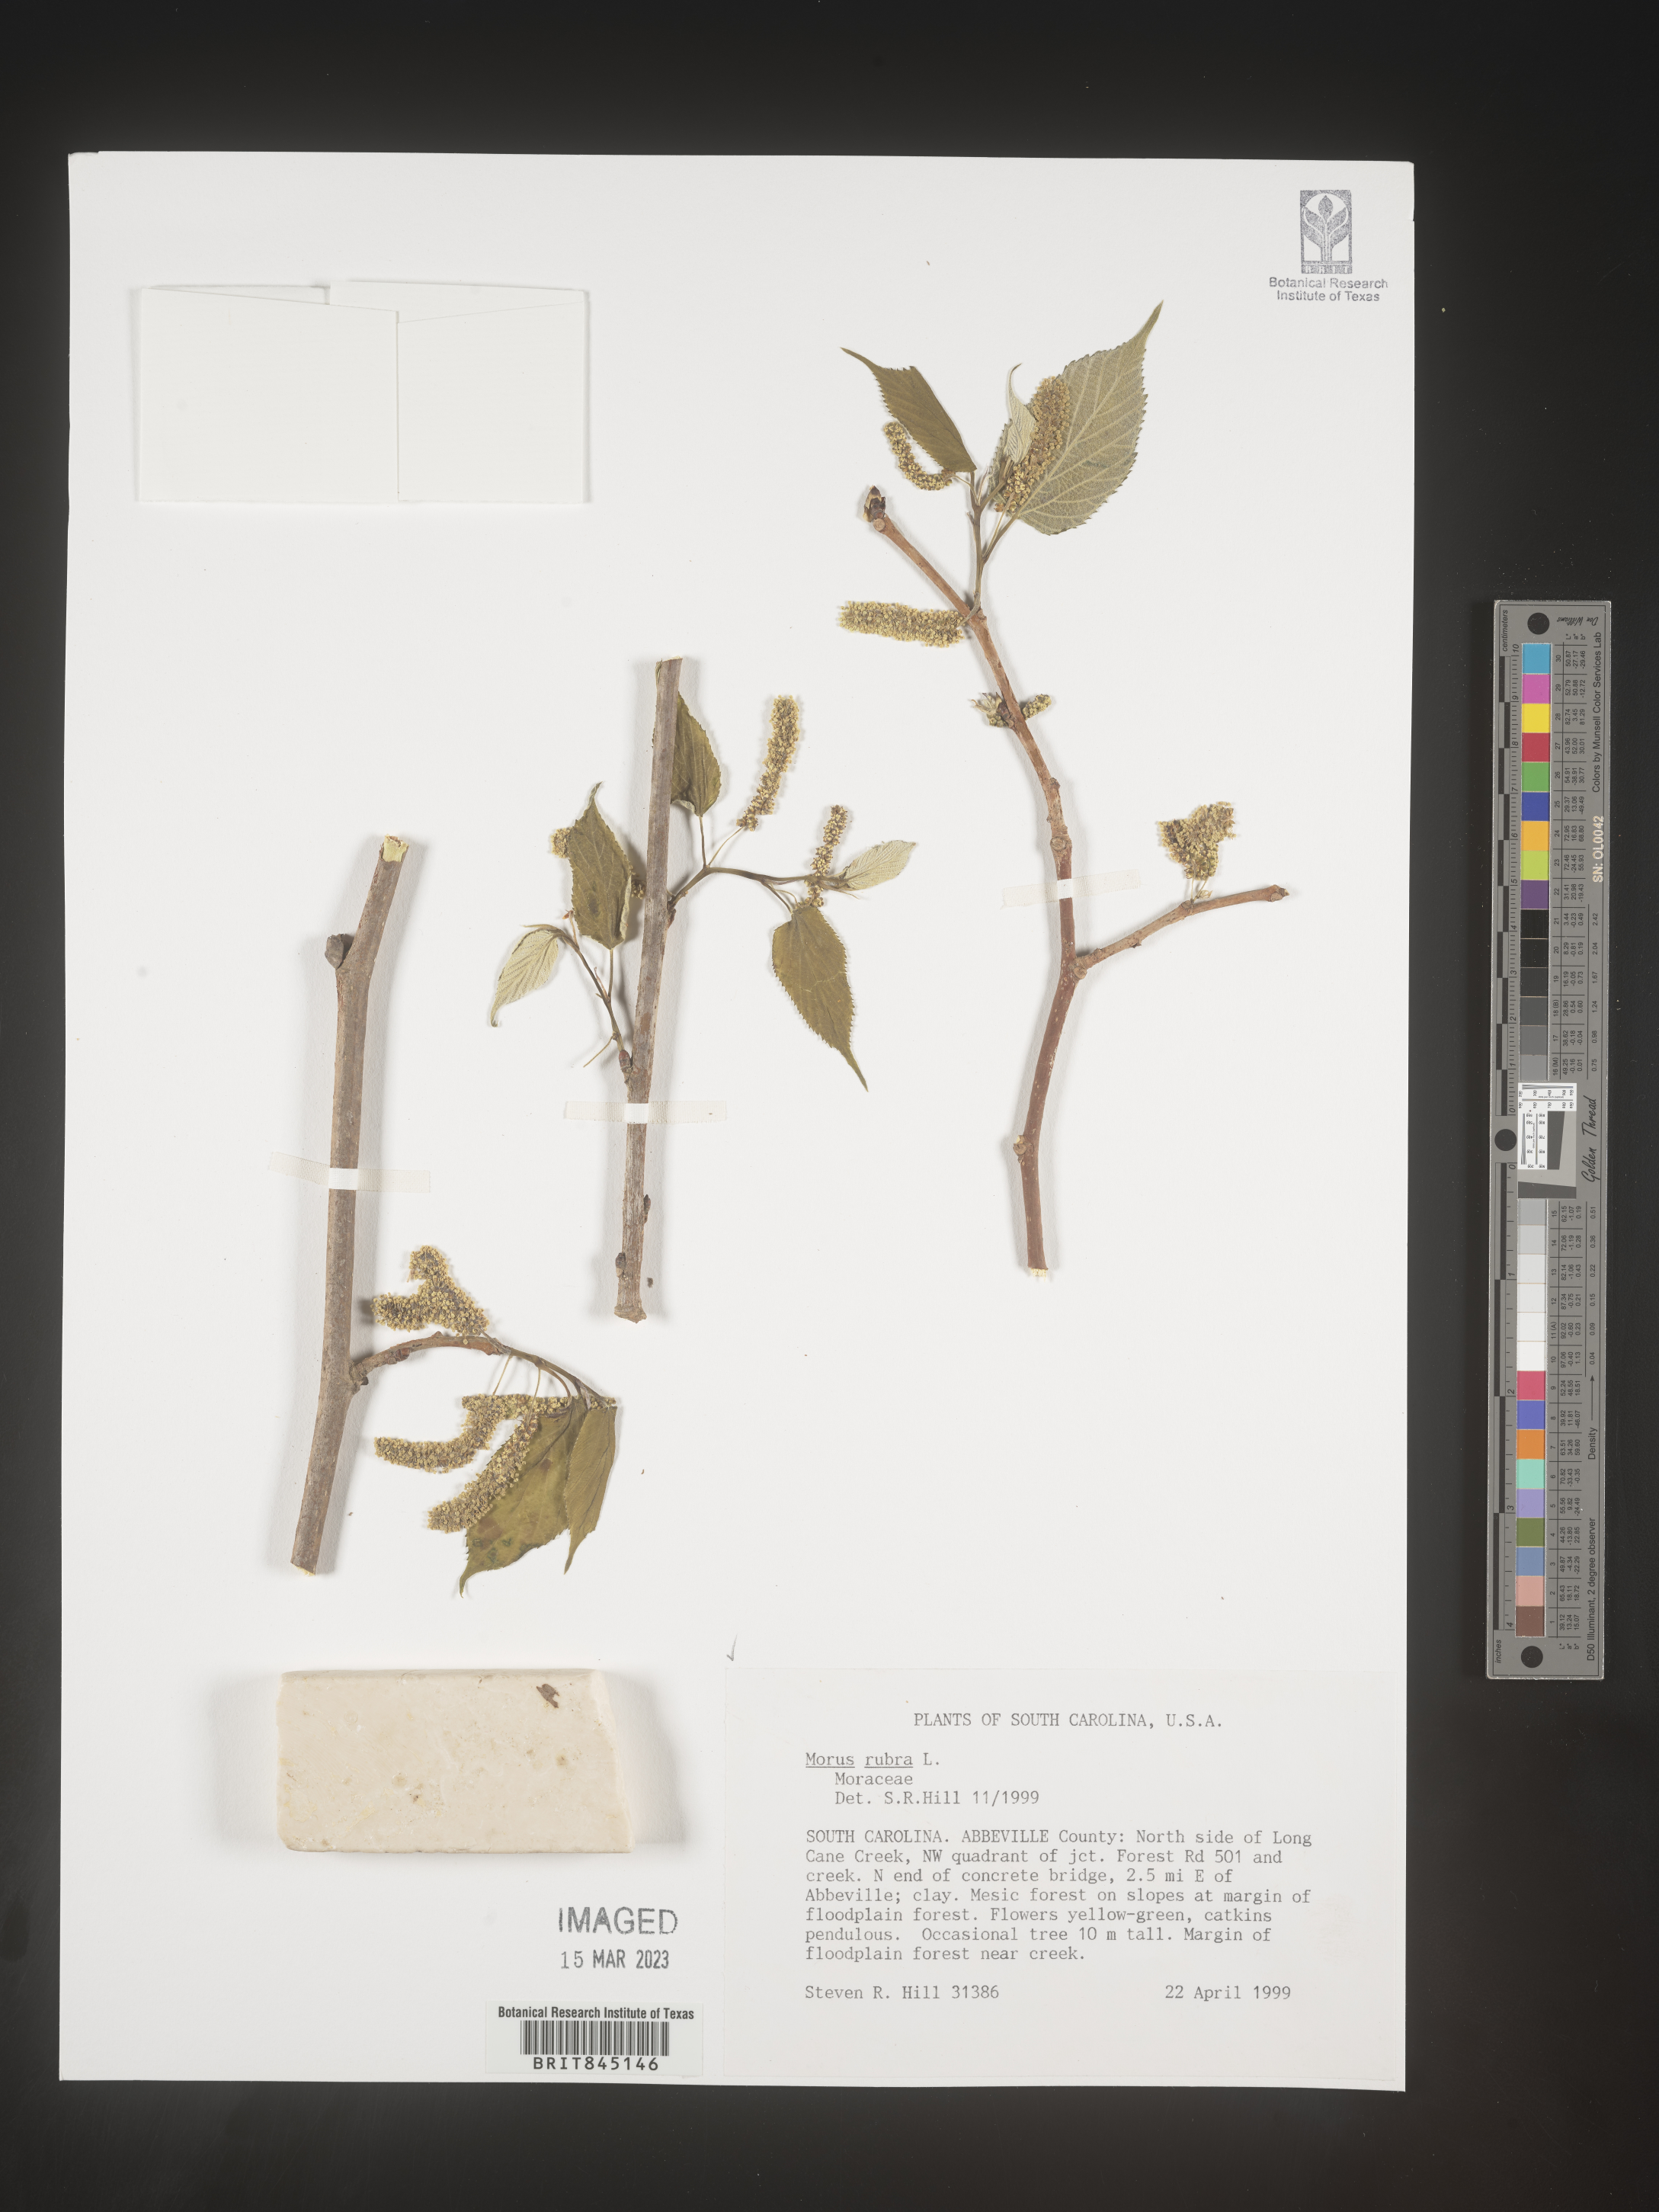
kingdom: Plantae
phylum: Tracheophyta
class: Magnoliopsida
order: Rosales
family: Moraceae
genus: Morus
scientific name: Morus rubra
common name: Red mulberry
